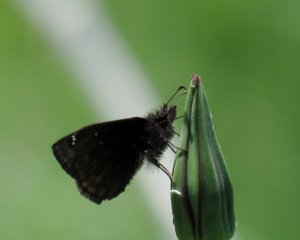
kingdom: Animalia
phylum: Arthropoda
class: Insecta
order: Lepidoptera
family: Hesperiidae
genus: Thorybes
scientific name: Thorybes
